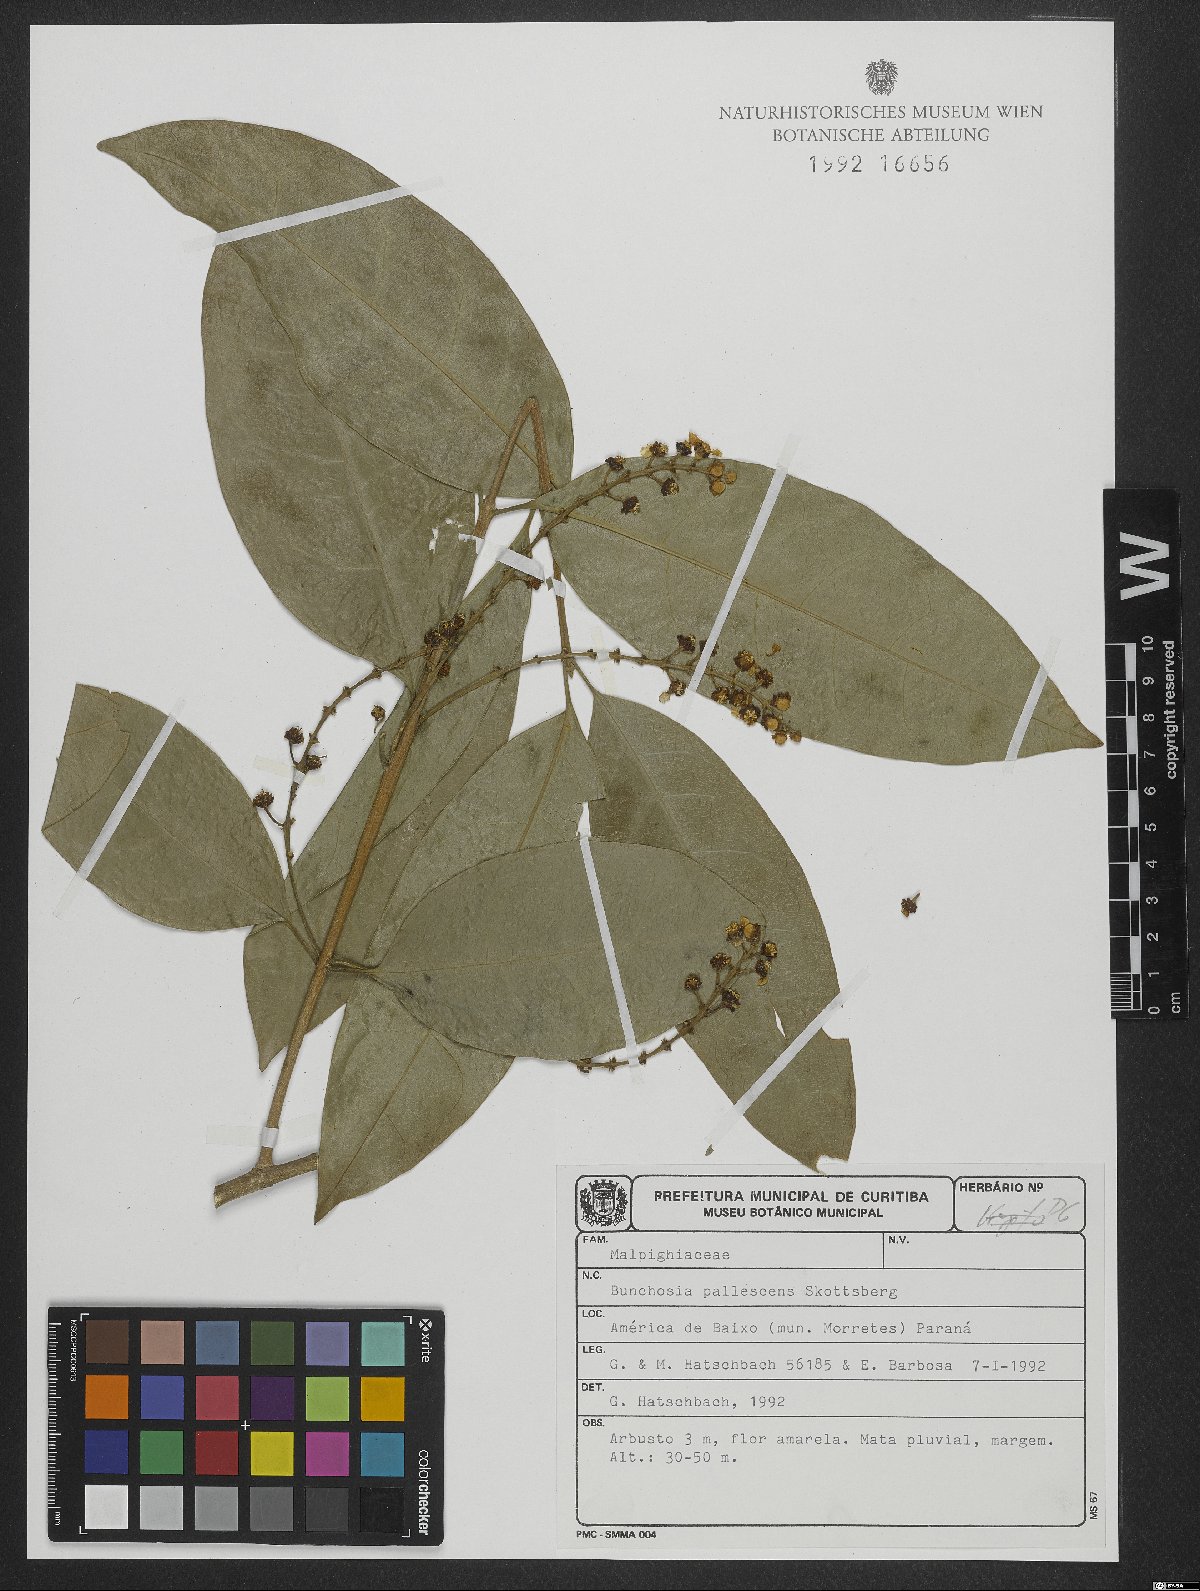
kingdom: Plantae
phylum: Tracheophyta
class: Magnoliopsida
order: Malpighiales
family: Malpighiaceae
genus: Bunchosia
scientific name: Bunchosia pallescens
